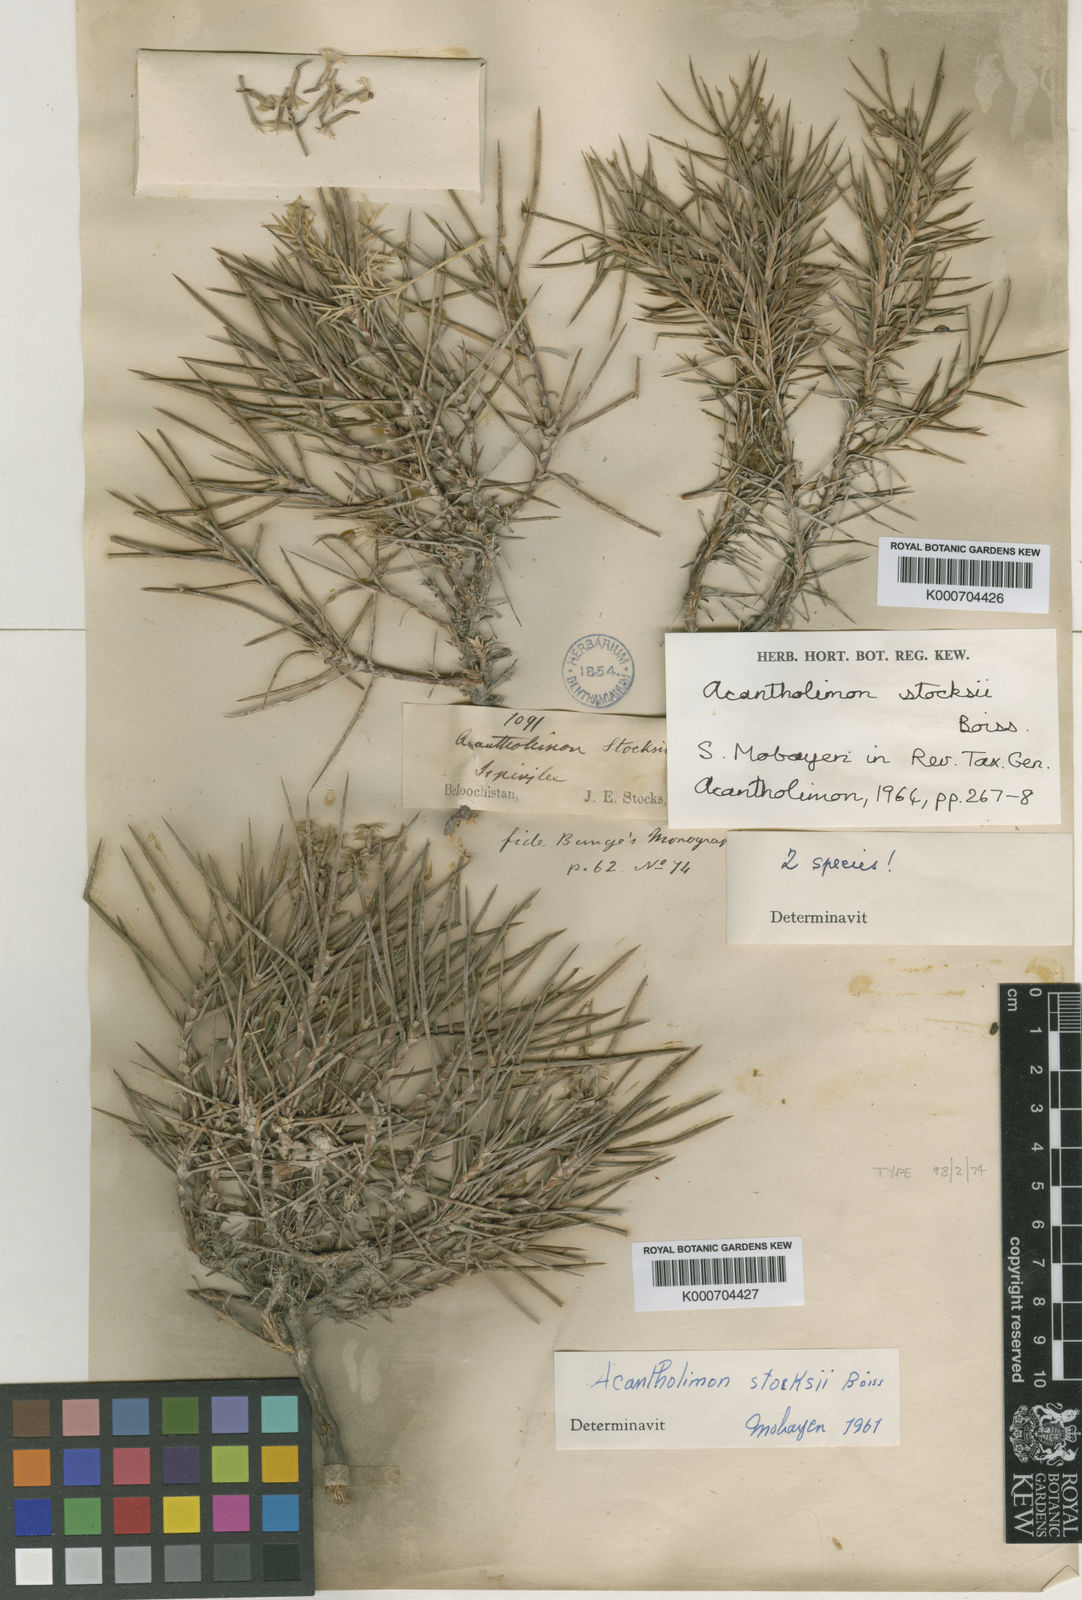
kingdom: Plantae
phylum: Tracheophyta
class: Magnoliopsida
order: Caryophyllales
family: Plumbaginaceae
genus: Acantholimon
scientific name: Acantholimon stocksii
